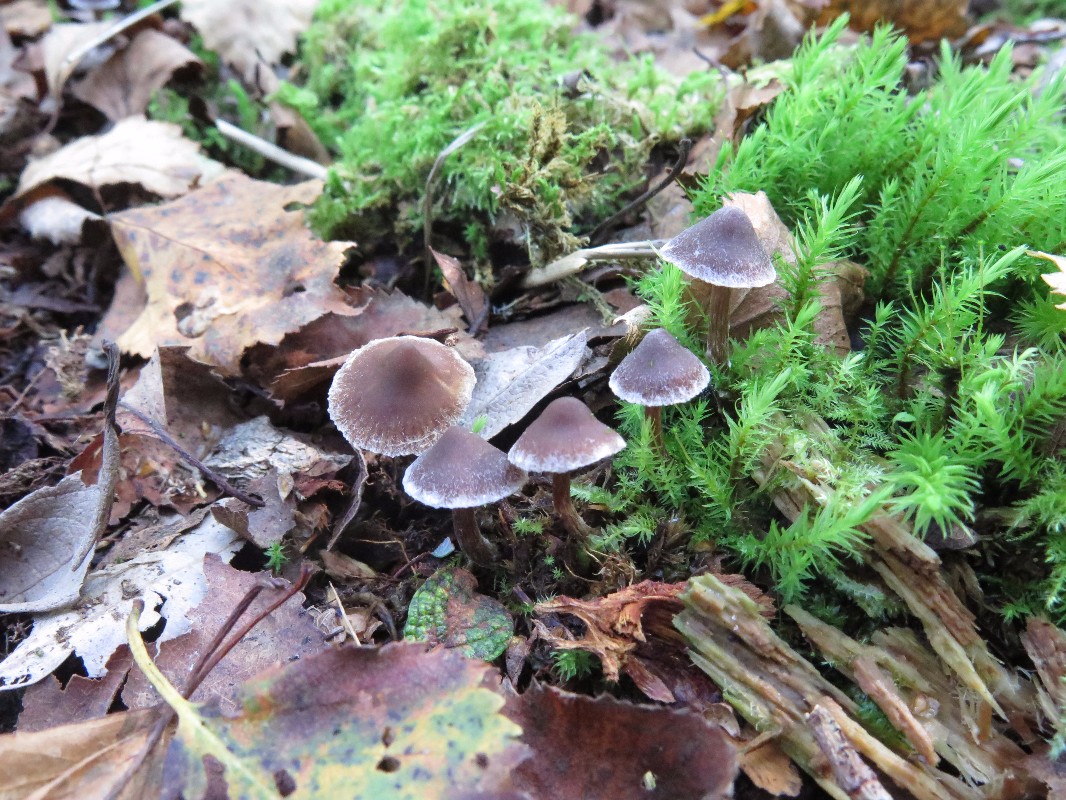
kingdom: Fungi
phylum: Basidiomycota
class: Agaricomycetes
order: Agaricales
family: Cortinariaceae
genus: Cortinarius
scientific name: Cortinarius pilatii
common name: Piláts slørhat
